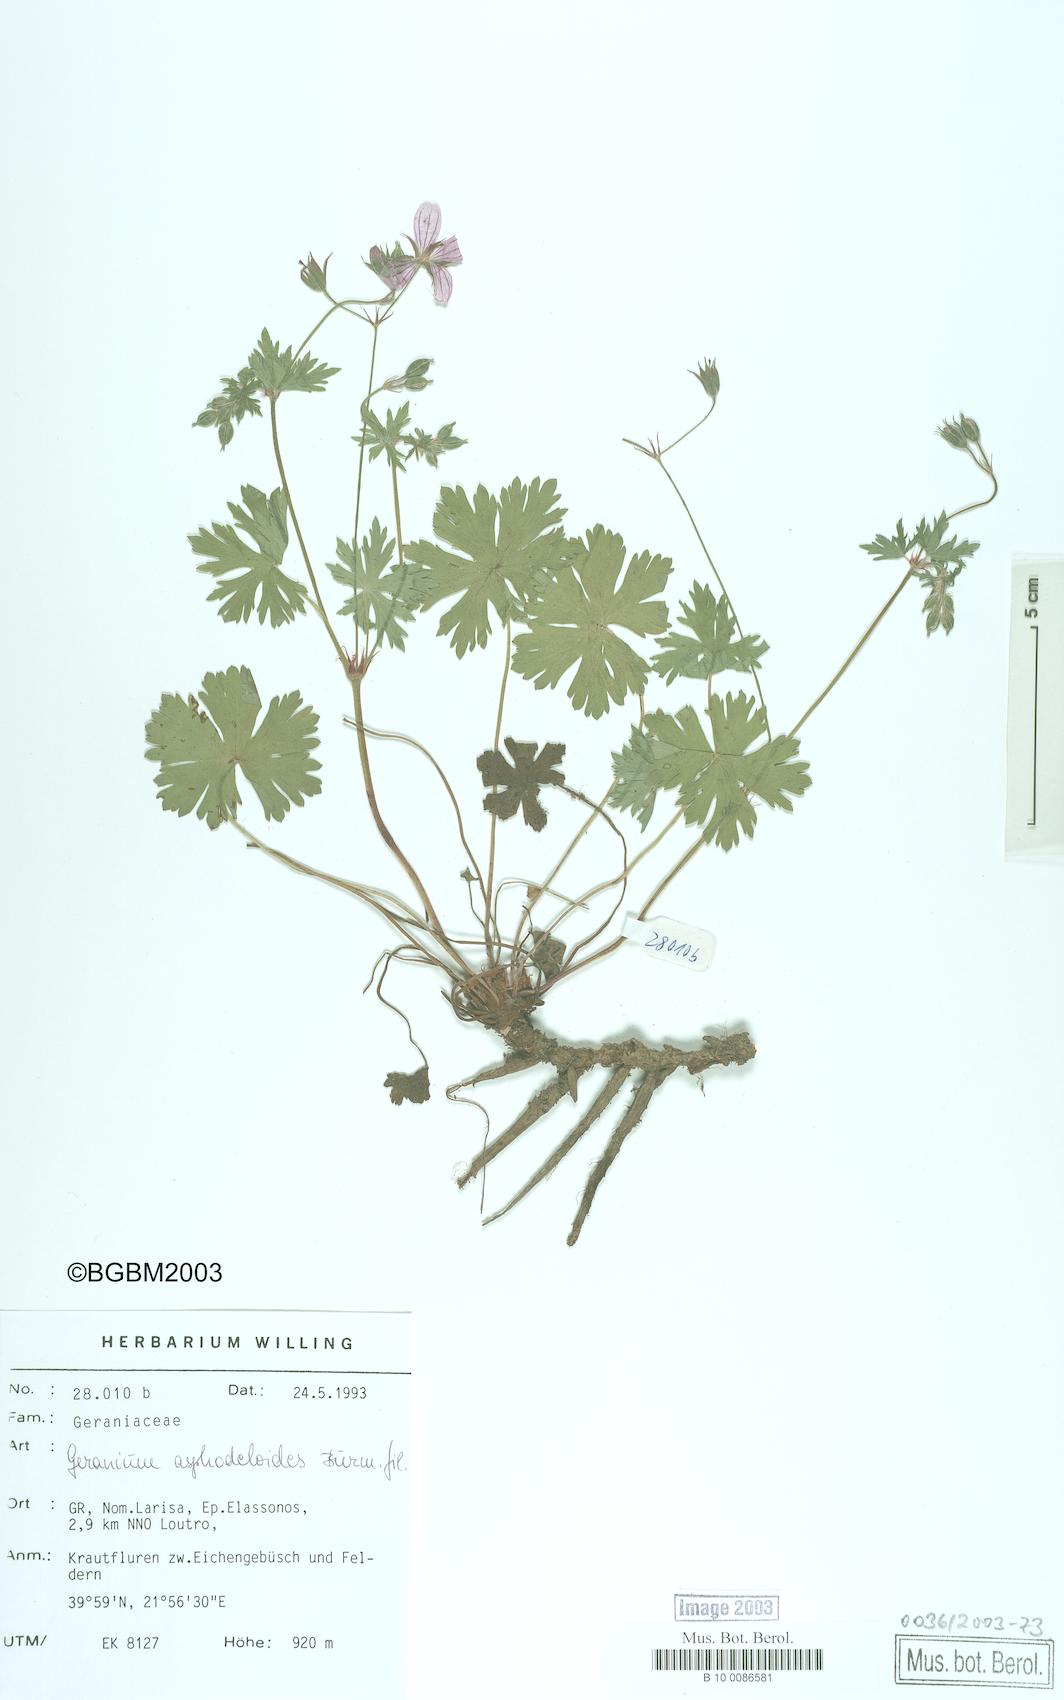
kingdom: Plantae
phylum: Tracheophyta
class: Magnoliopsida
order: Geraniales
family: Geraniaceae
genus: Geranium
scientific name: Geranium asphodeloides
